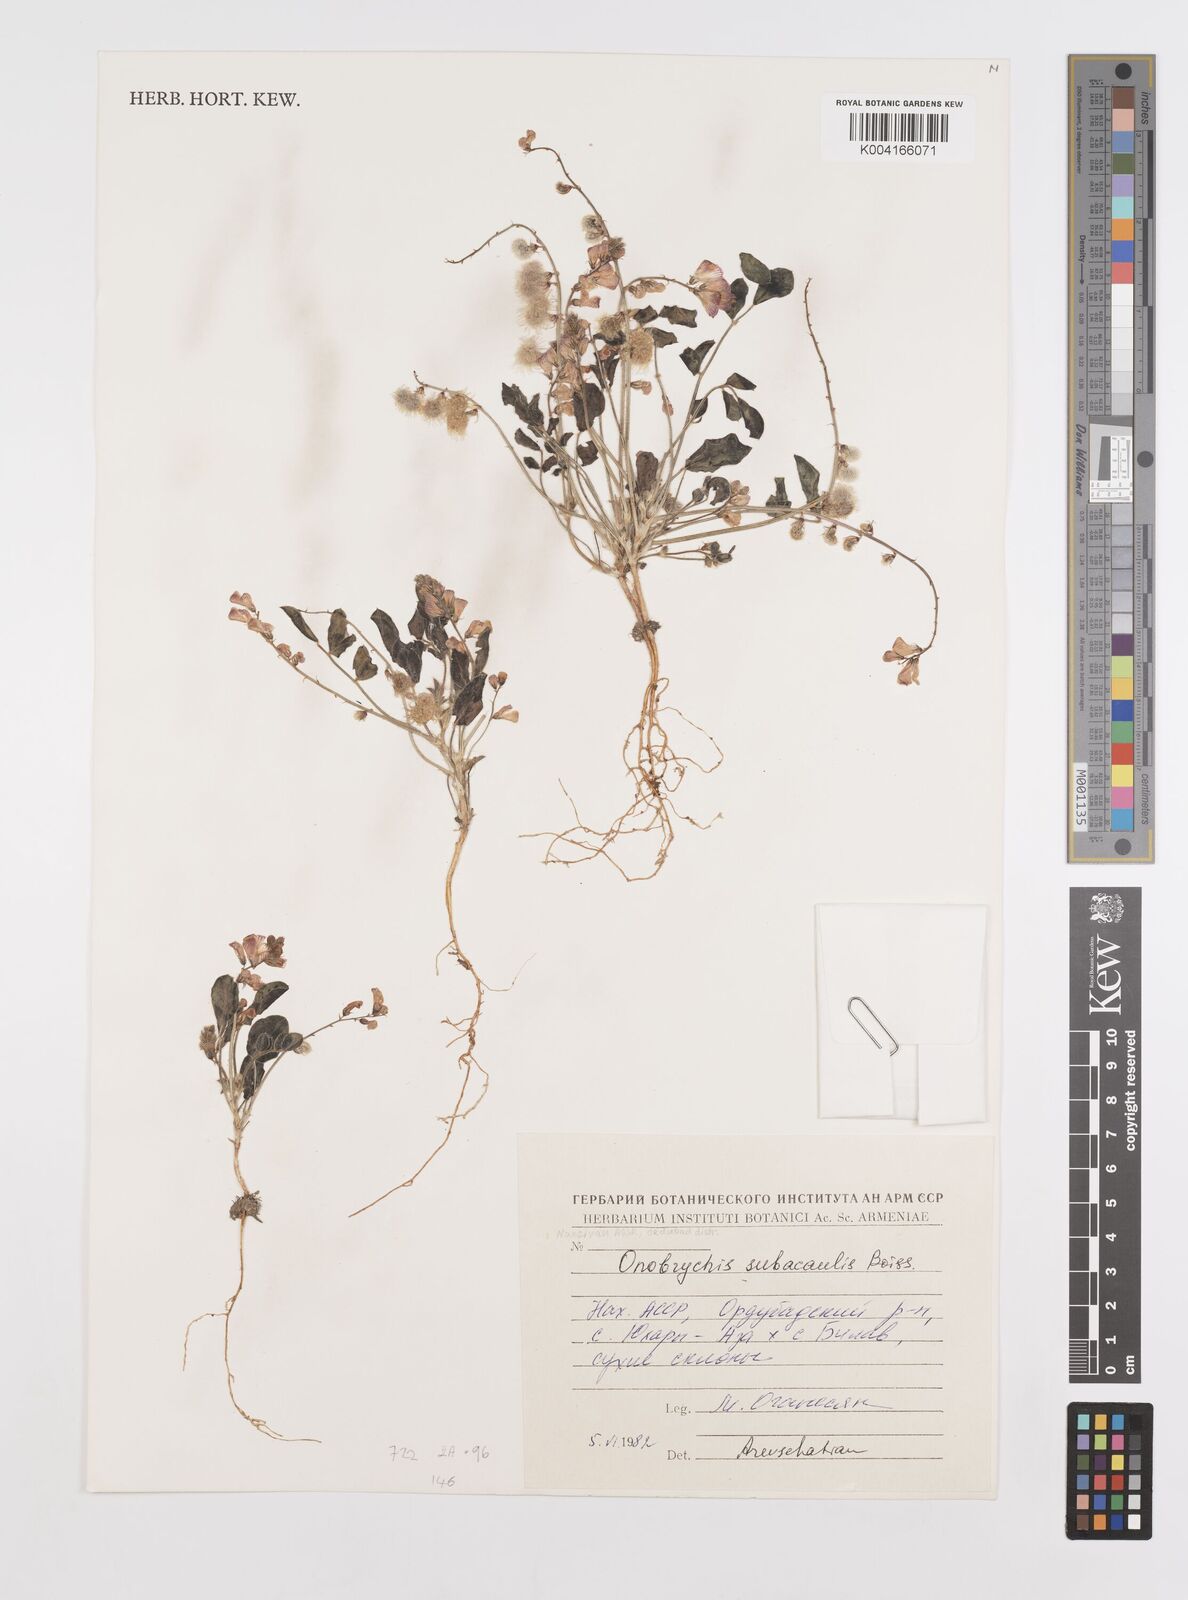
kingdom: Plantae
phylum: Tracheophyta
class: Magnoliopsida
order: Fabales
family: Fabaceae
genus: Onobrychis
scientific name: Onobrychis subacaulis
